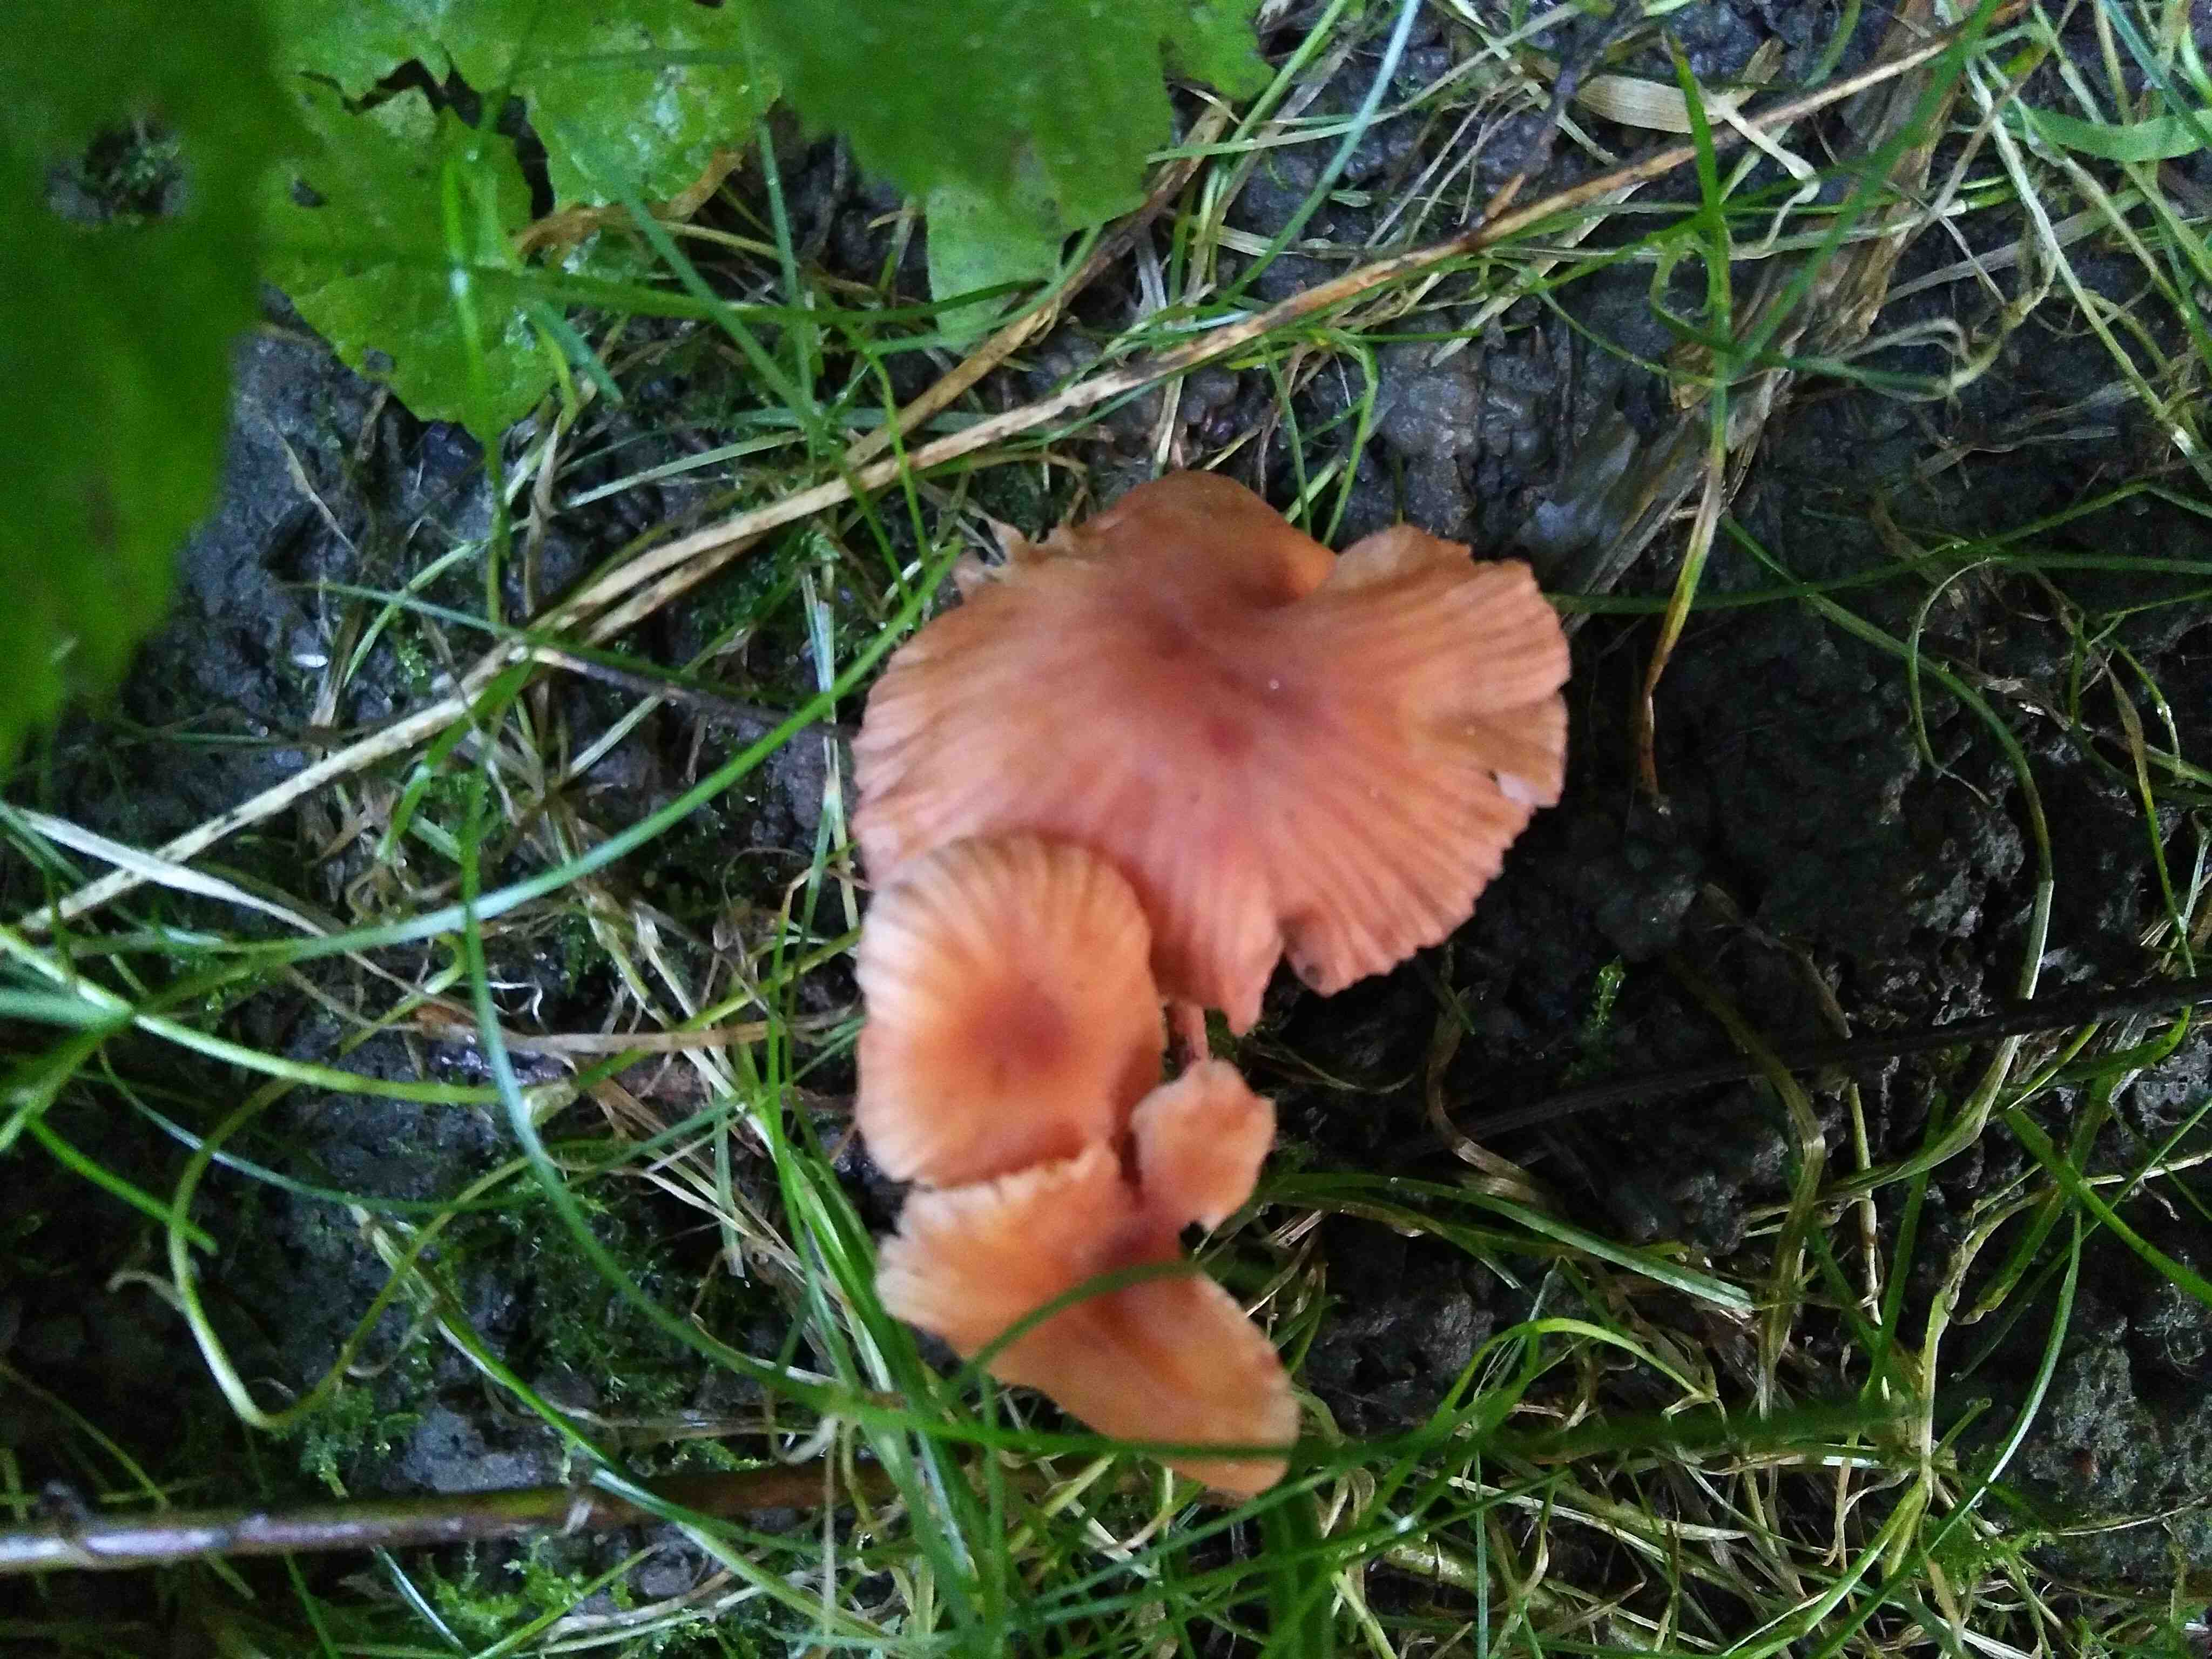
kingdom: Fungi
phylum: Basidiomycota
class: Agaricomycetes
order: Agaricales
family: Hydnangiaceae
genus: Laccaria
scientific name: Laccaria laccata
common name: rød ametysthat
